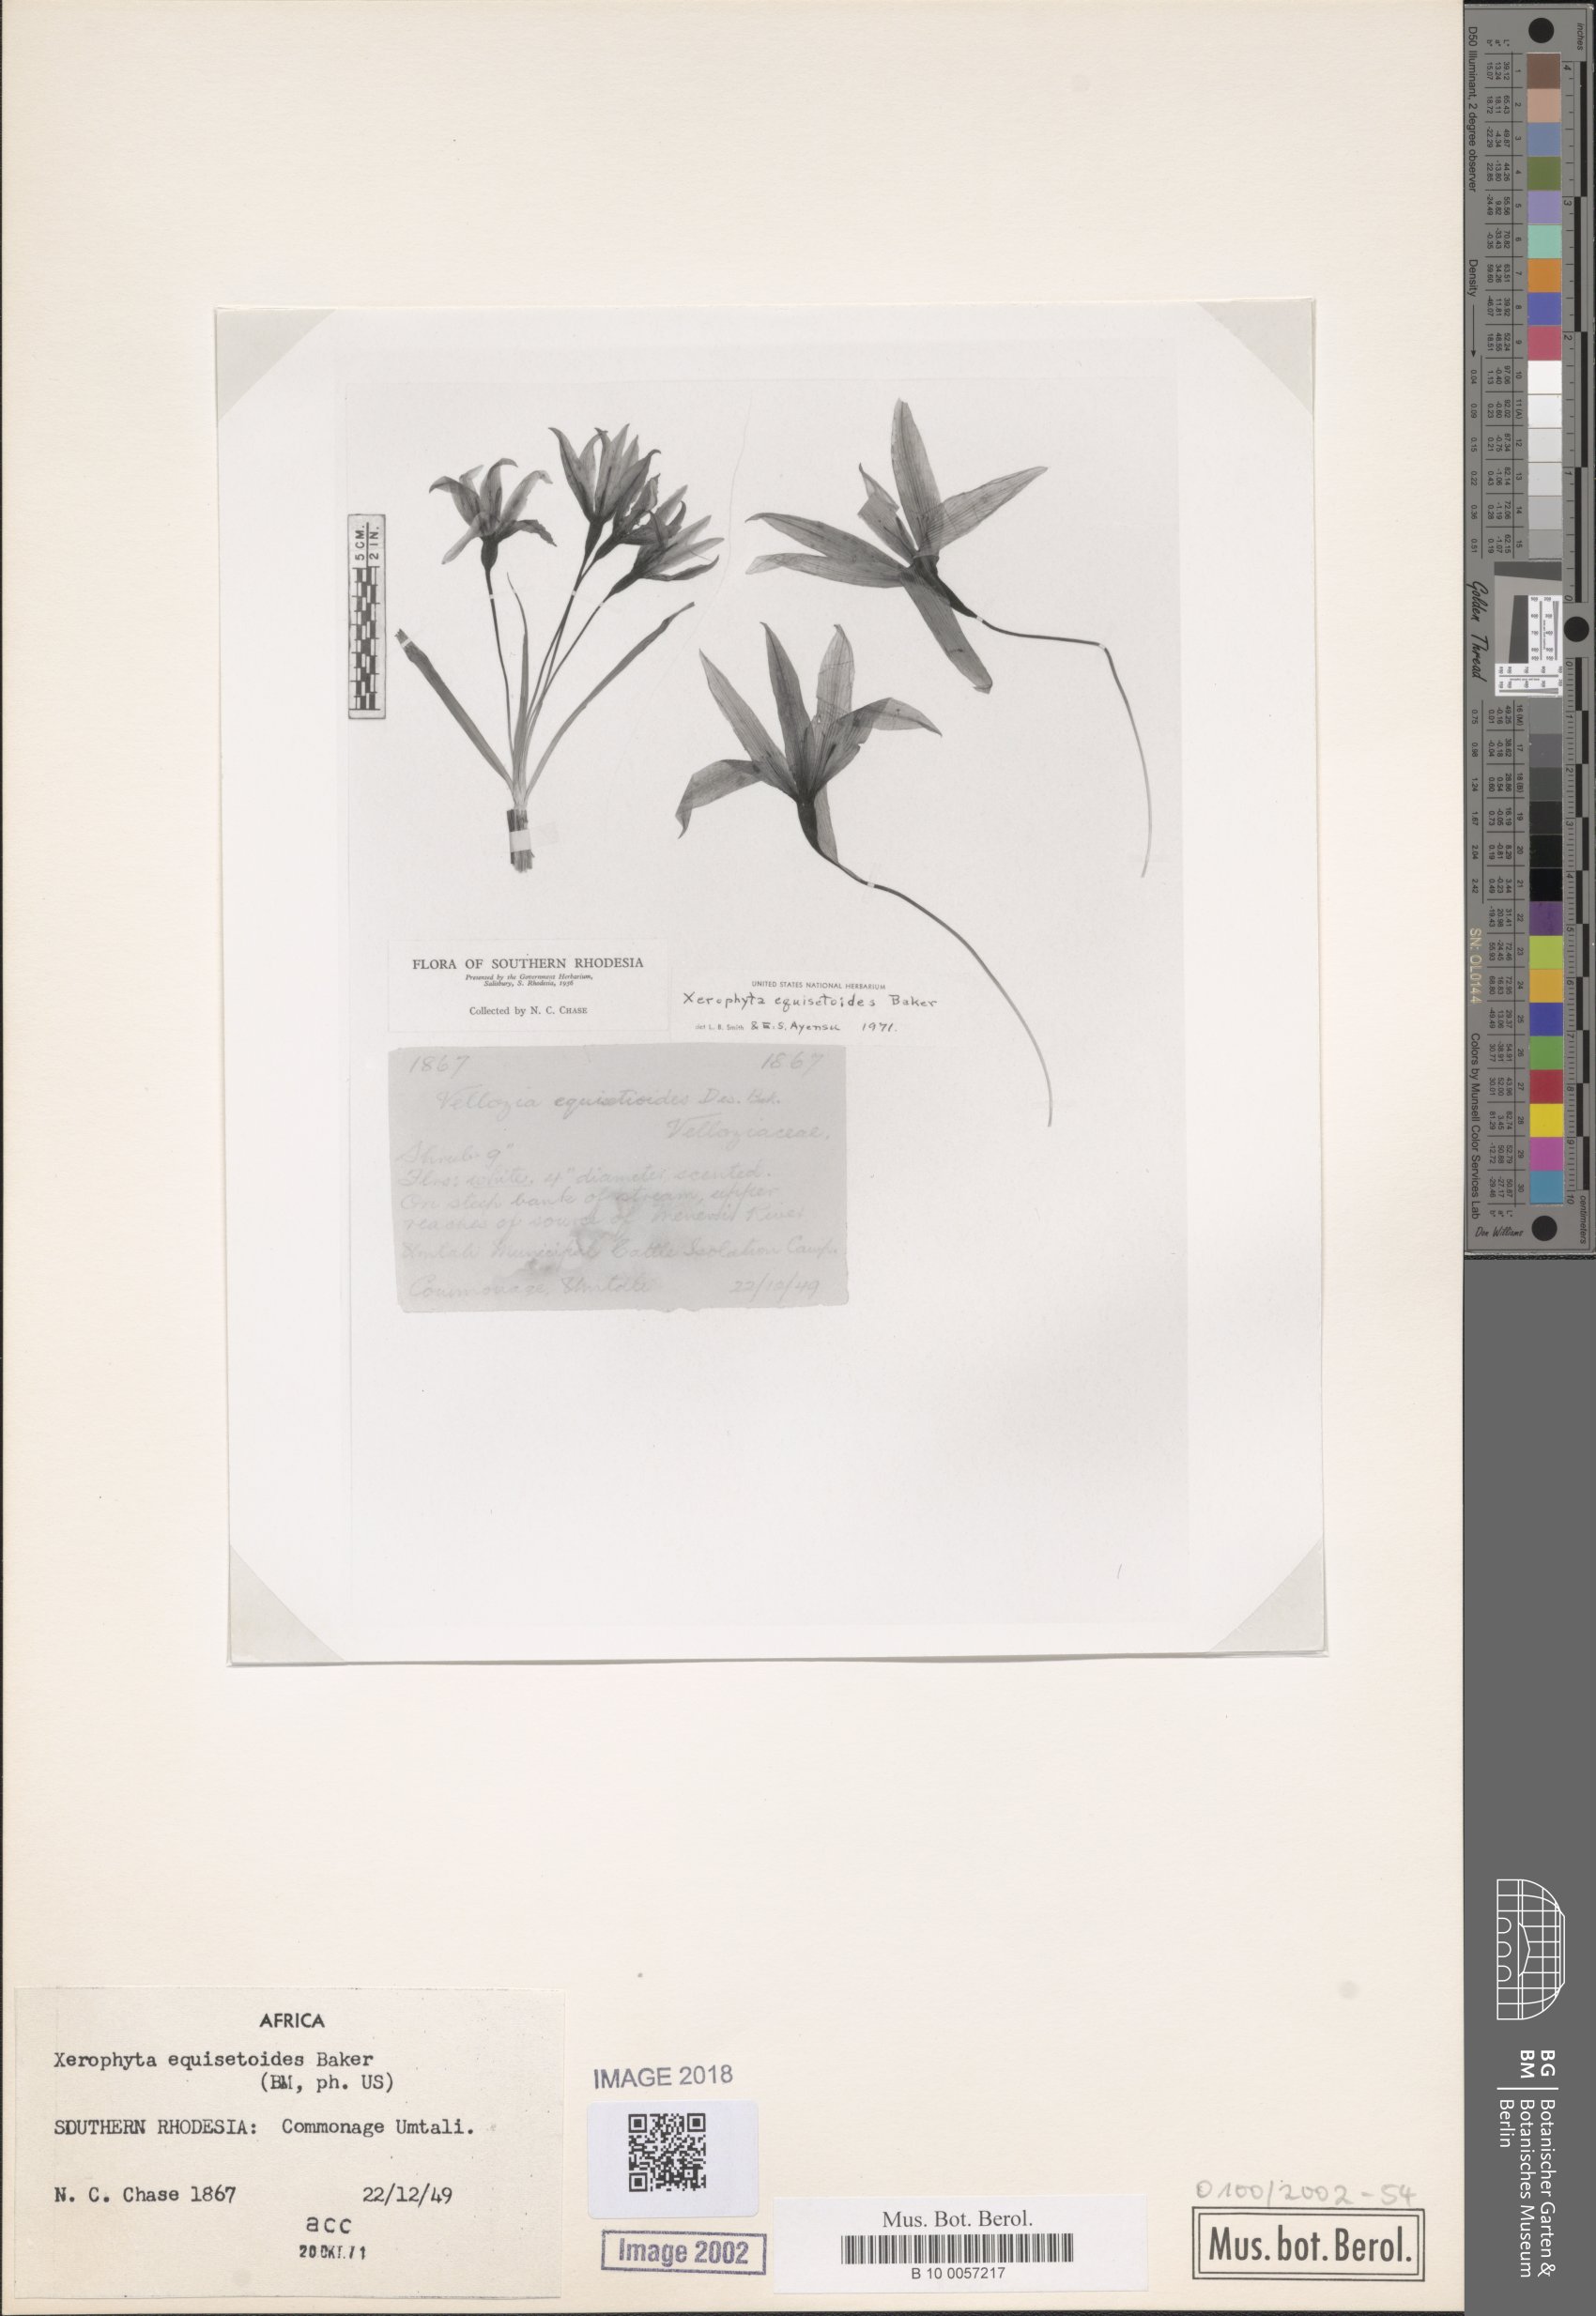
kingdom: Plantae
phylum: Tracheophyta
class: Liliopsida
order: Pandanales
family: Velloziaceae
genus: Xerophyta
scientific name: Xerophyta equisetoides
